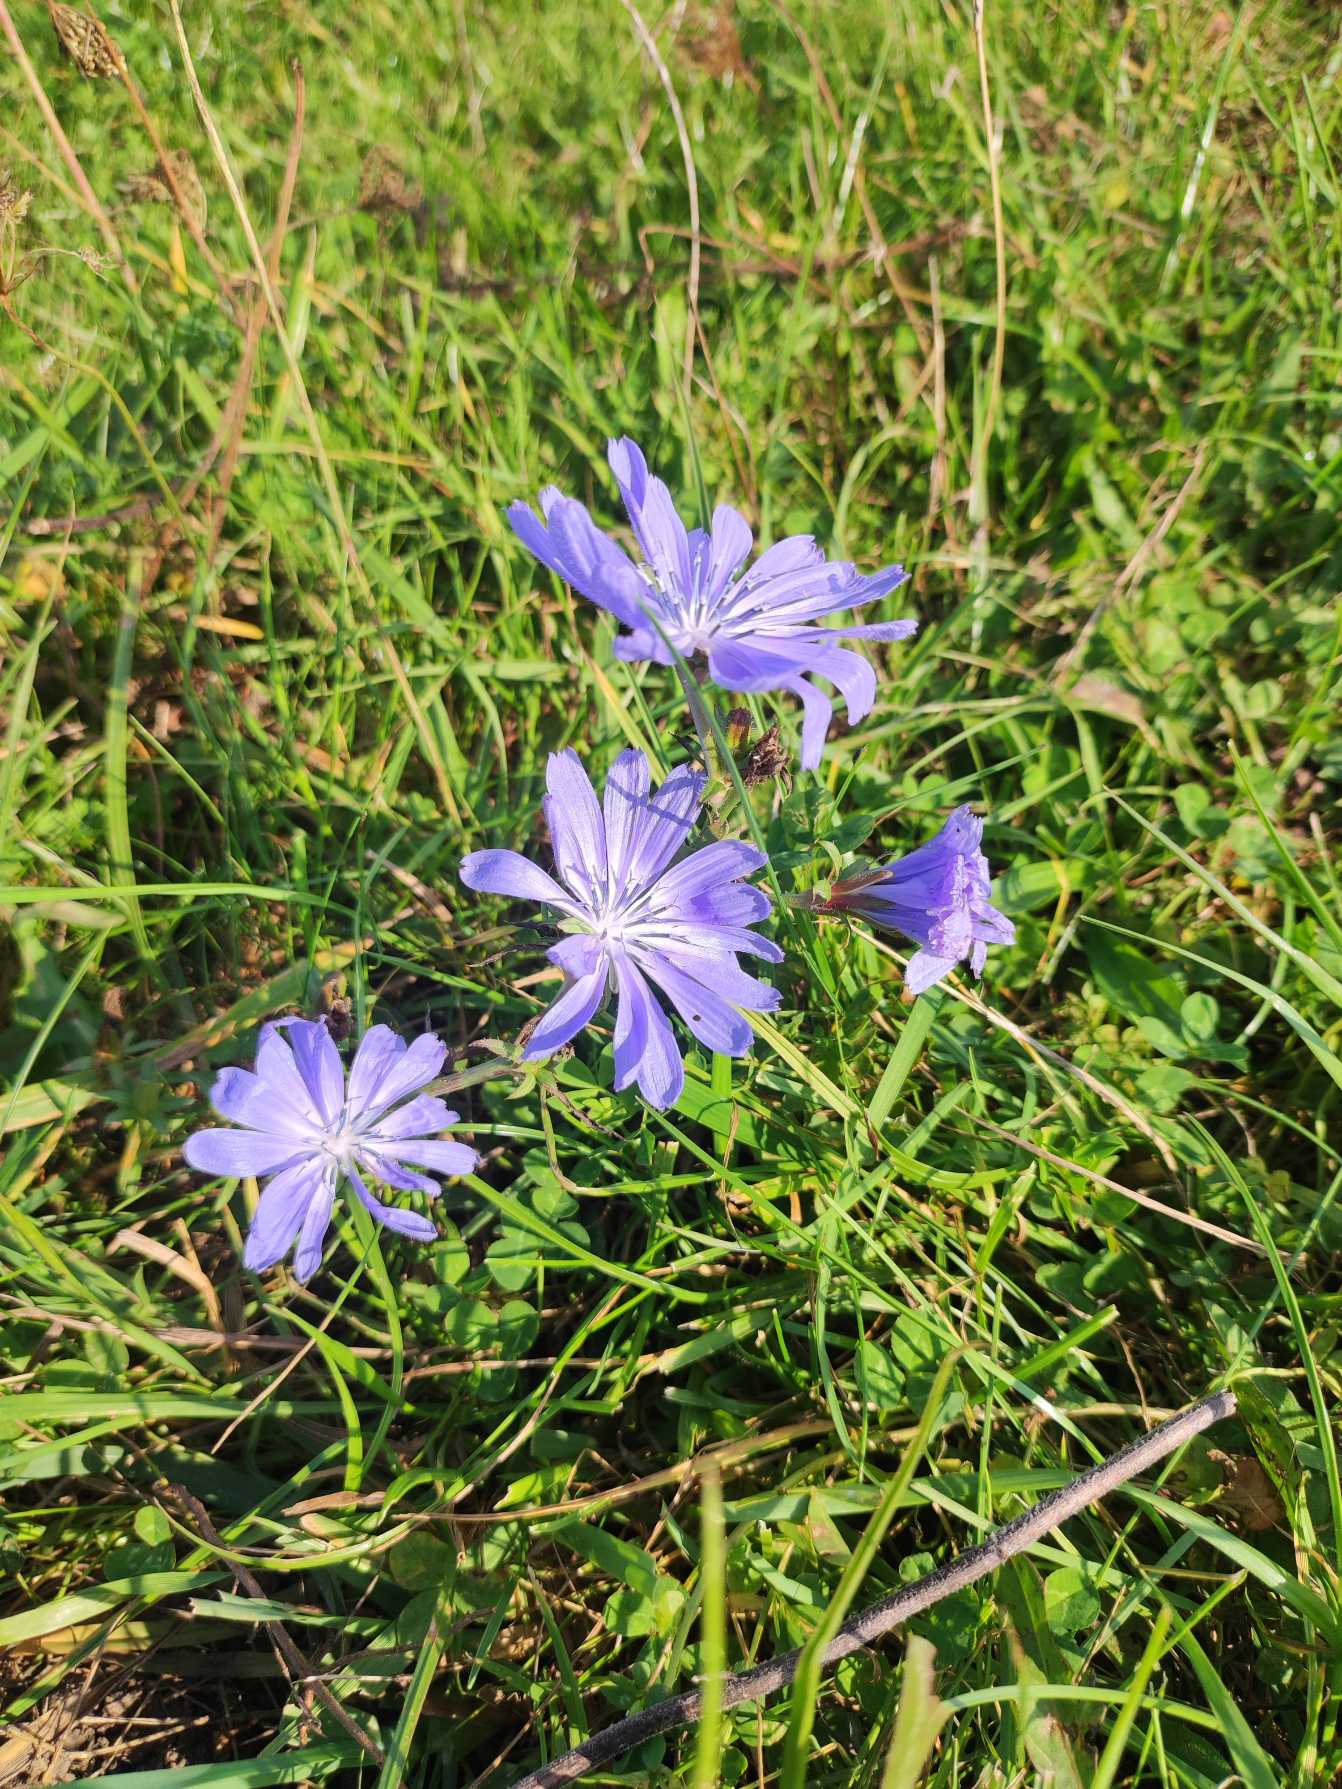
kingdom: Plantae
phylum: Tracheophyta
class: Magnoliopsida
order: Asterales
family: Asteraceae
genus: Cichorium
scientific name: Cichorium intybus
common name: Cikorie
